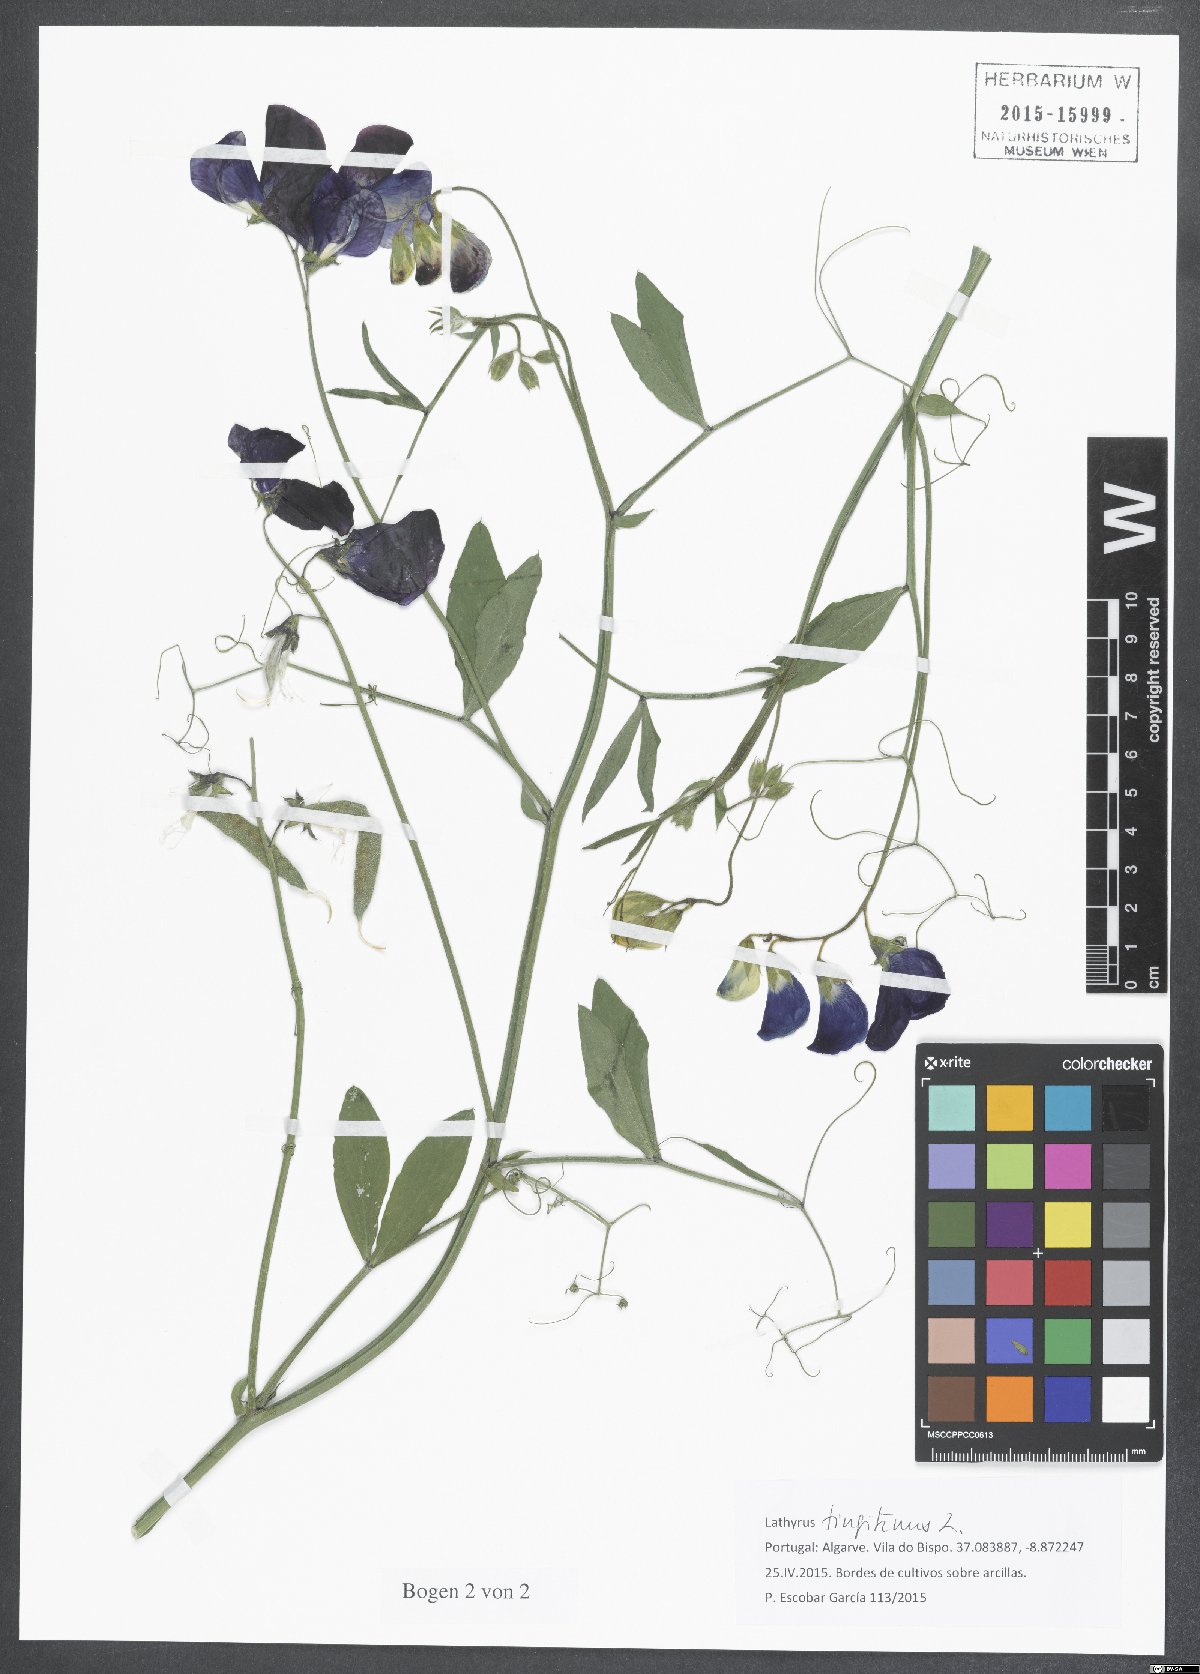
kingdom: Plantae
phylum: Tracheophyta
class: Magnoliopsida
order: Fabales
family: Fabaceae
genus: Lathyrus
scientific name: Lathyrus tingitanus
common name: Tangier pea
